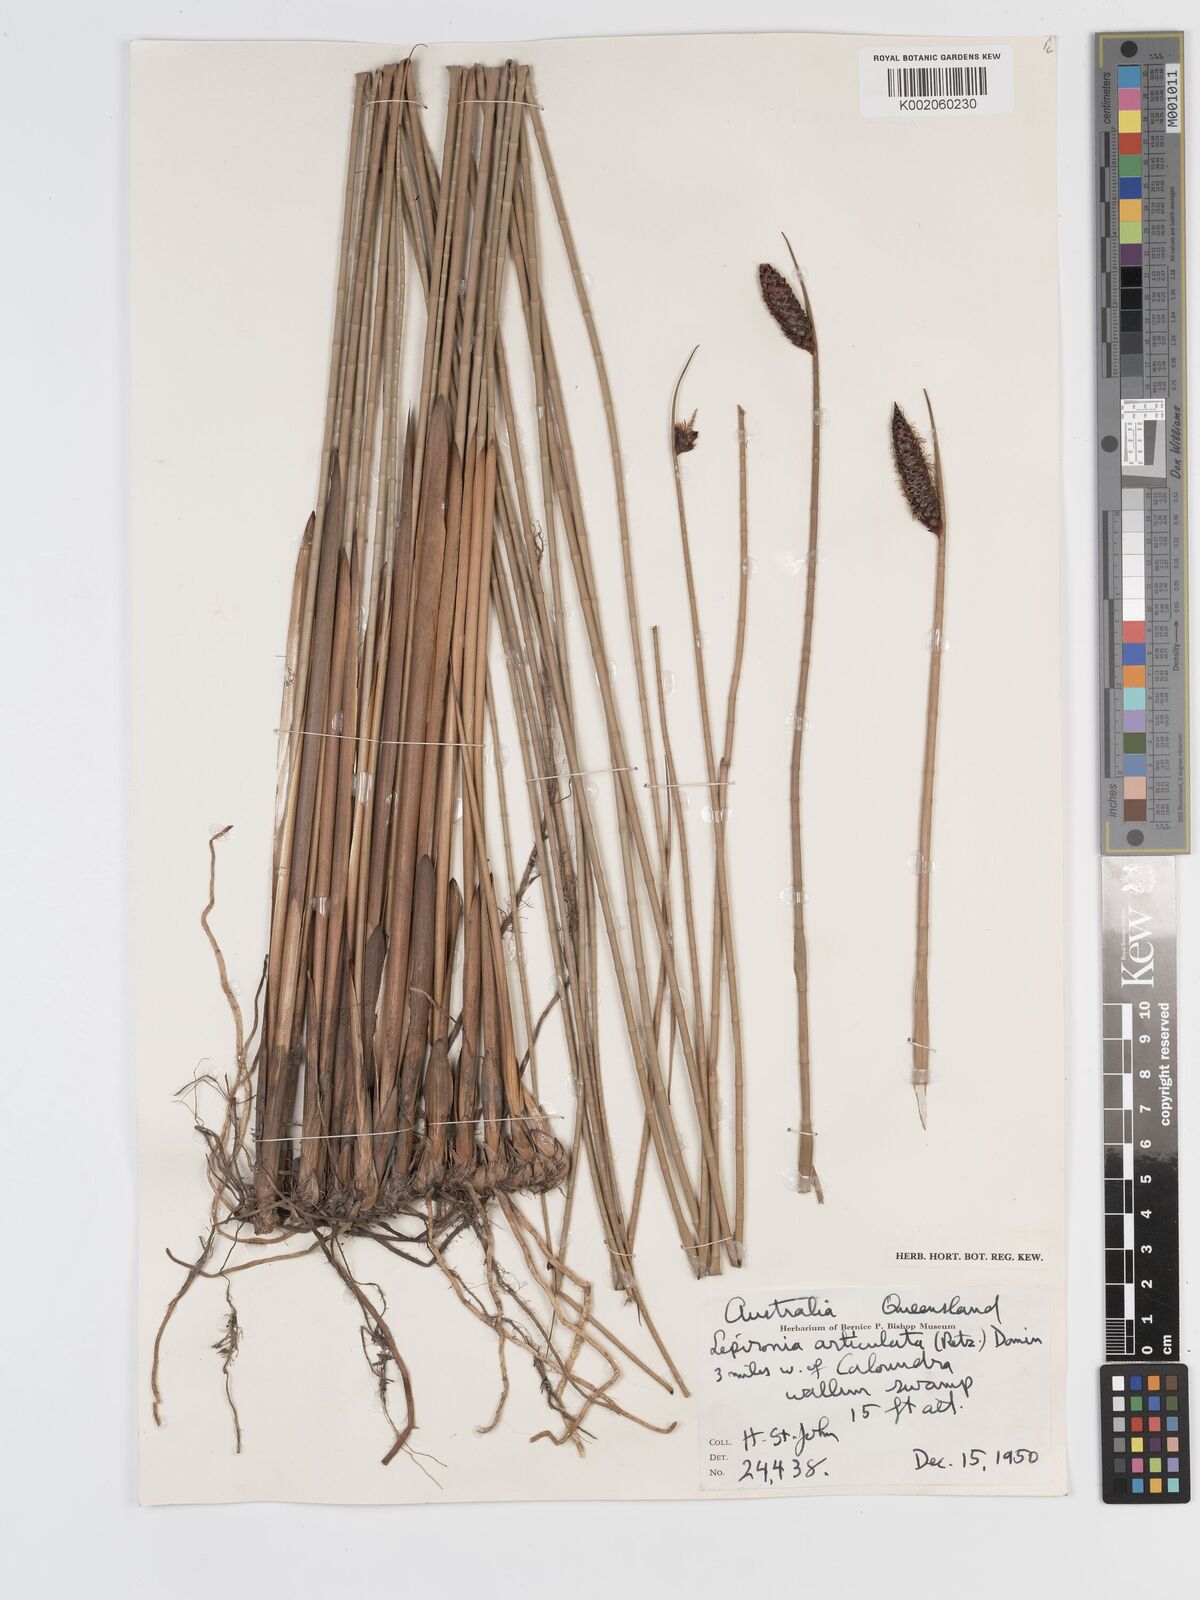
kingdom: Plantae
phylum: Tracheophyta
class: Liliopsida
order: Poales
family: Cyperaceae
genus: Lepironia
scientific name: Lepironia articulata
